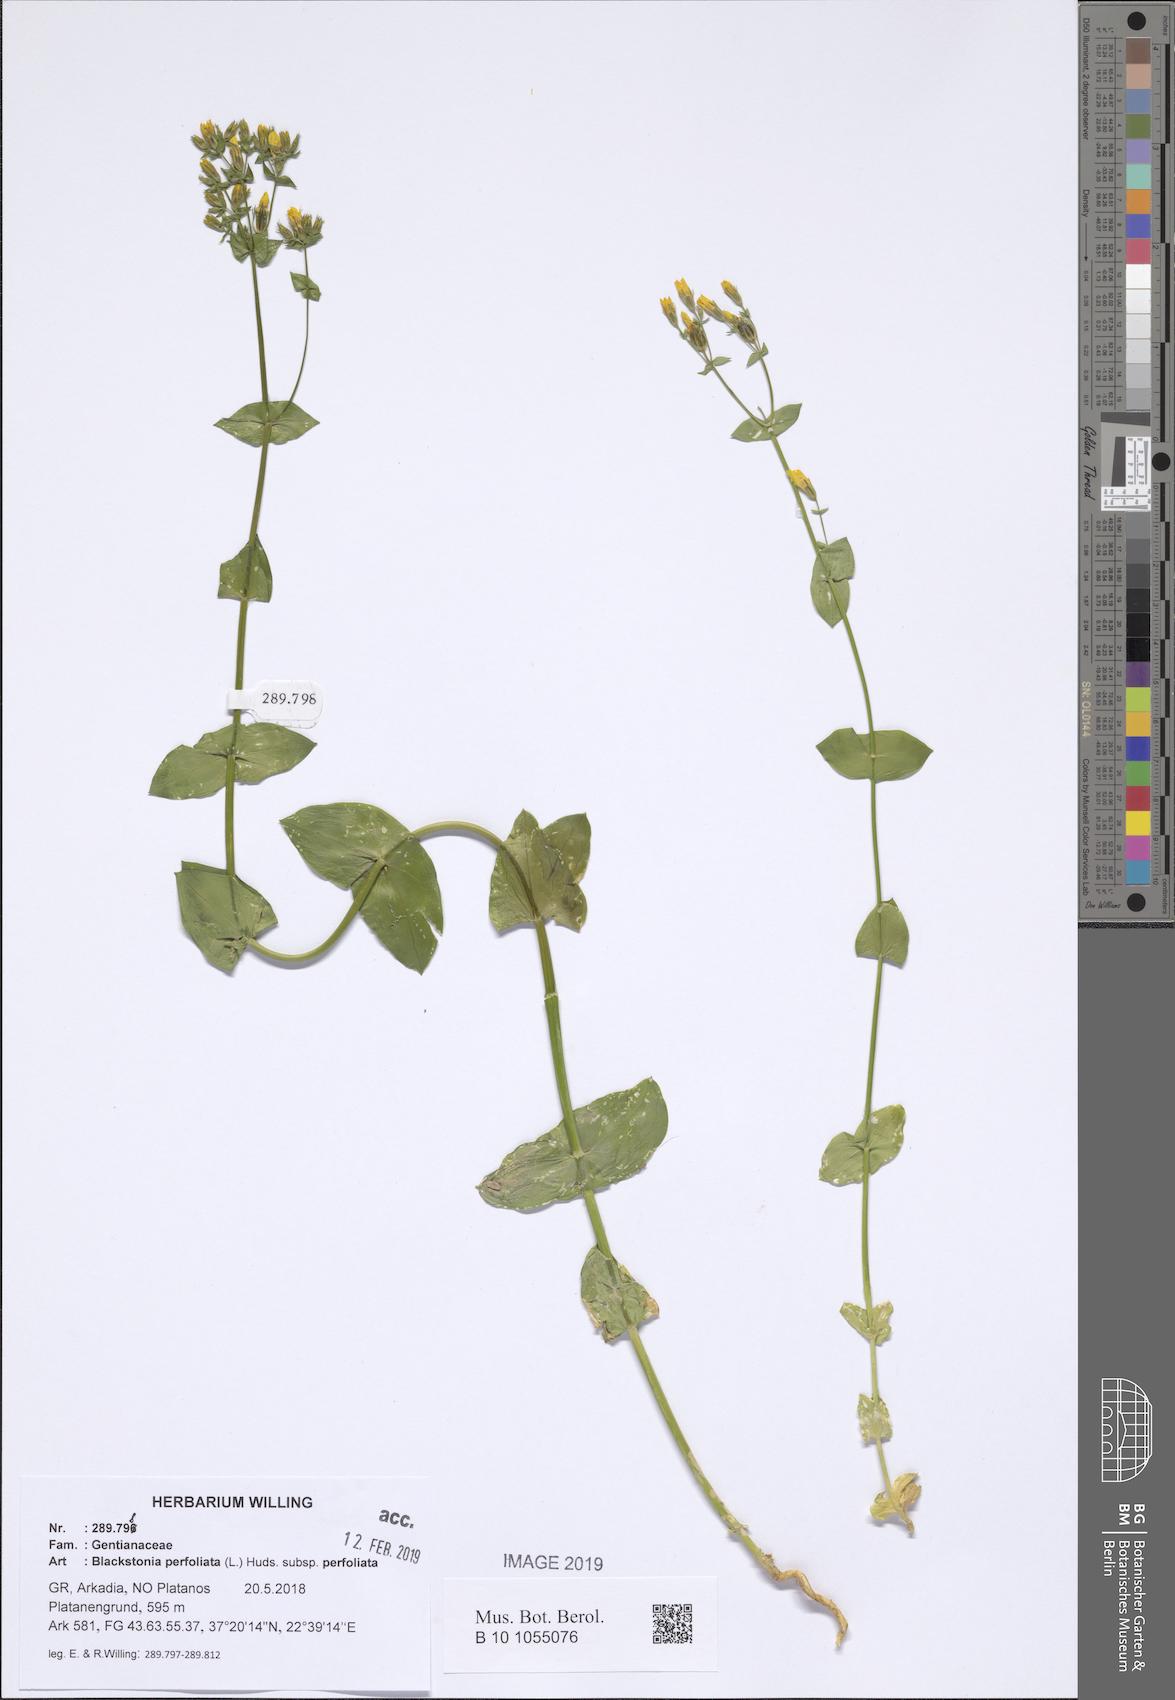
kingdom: Plantae
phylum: Tracheophyta
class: Magnoliopsida
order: Gentianales
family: Gentianaceae
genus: Blackstonia
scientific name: Blackstonia perfoliata
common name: Yellow-wort
